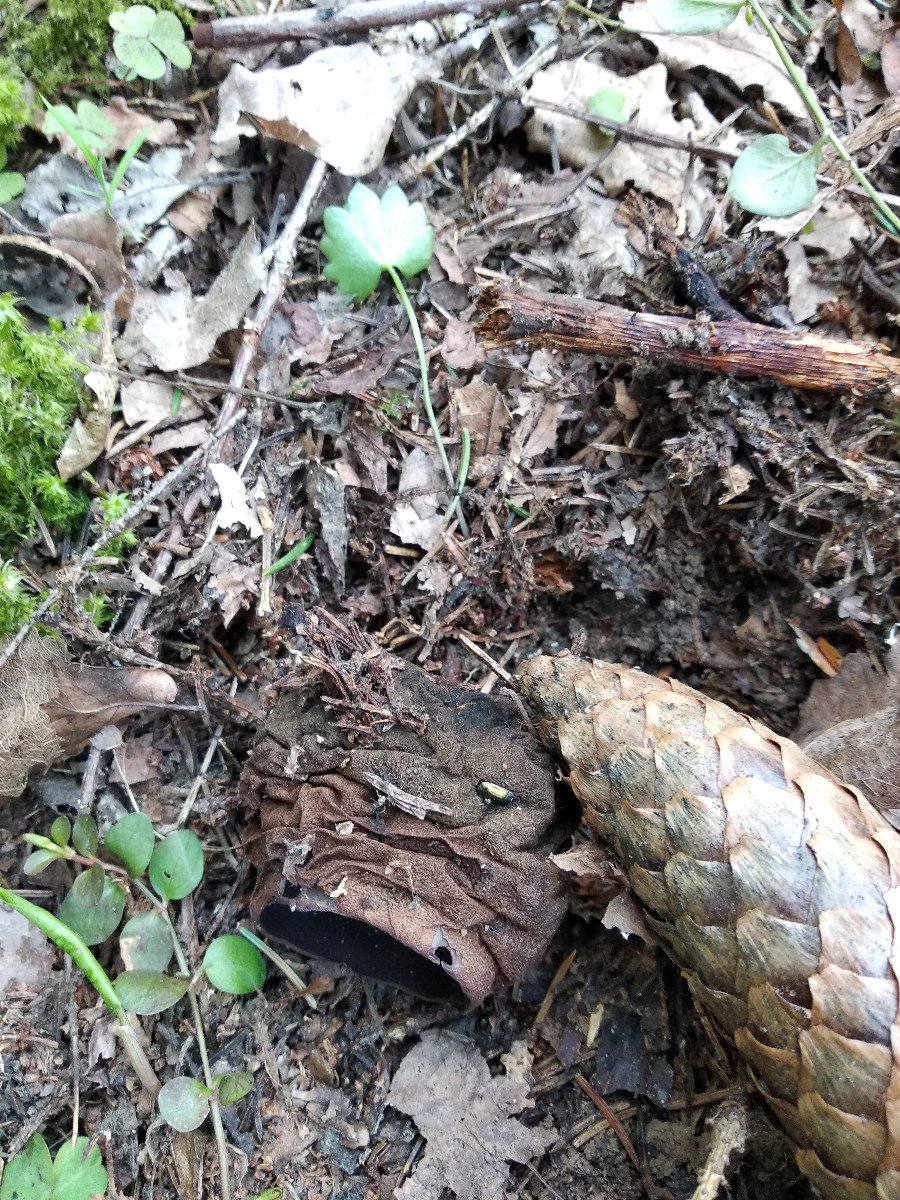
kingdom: Fungi
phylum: Ascomycota
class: Pezizomycetes
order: Pezizales
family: Sarcosomataceae
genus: Sarcosoma
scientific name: Sarcosoma globosum
